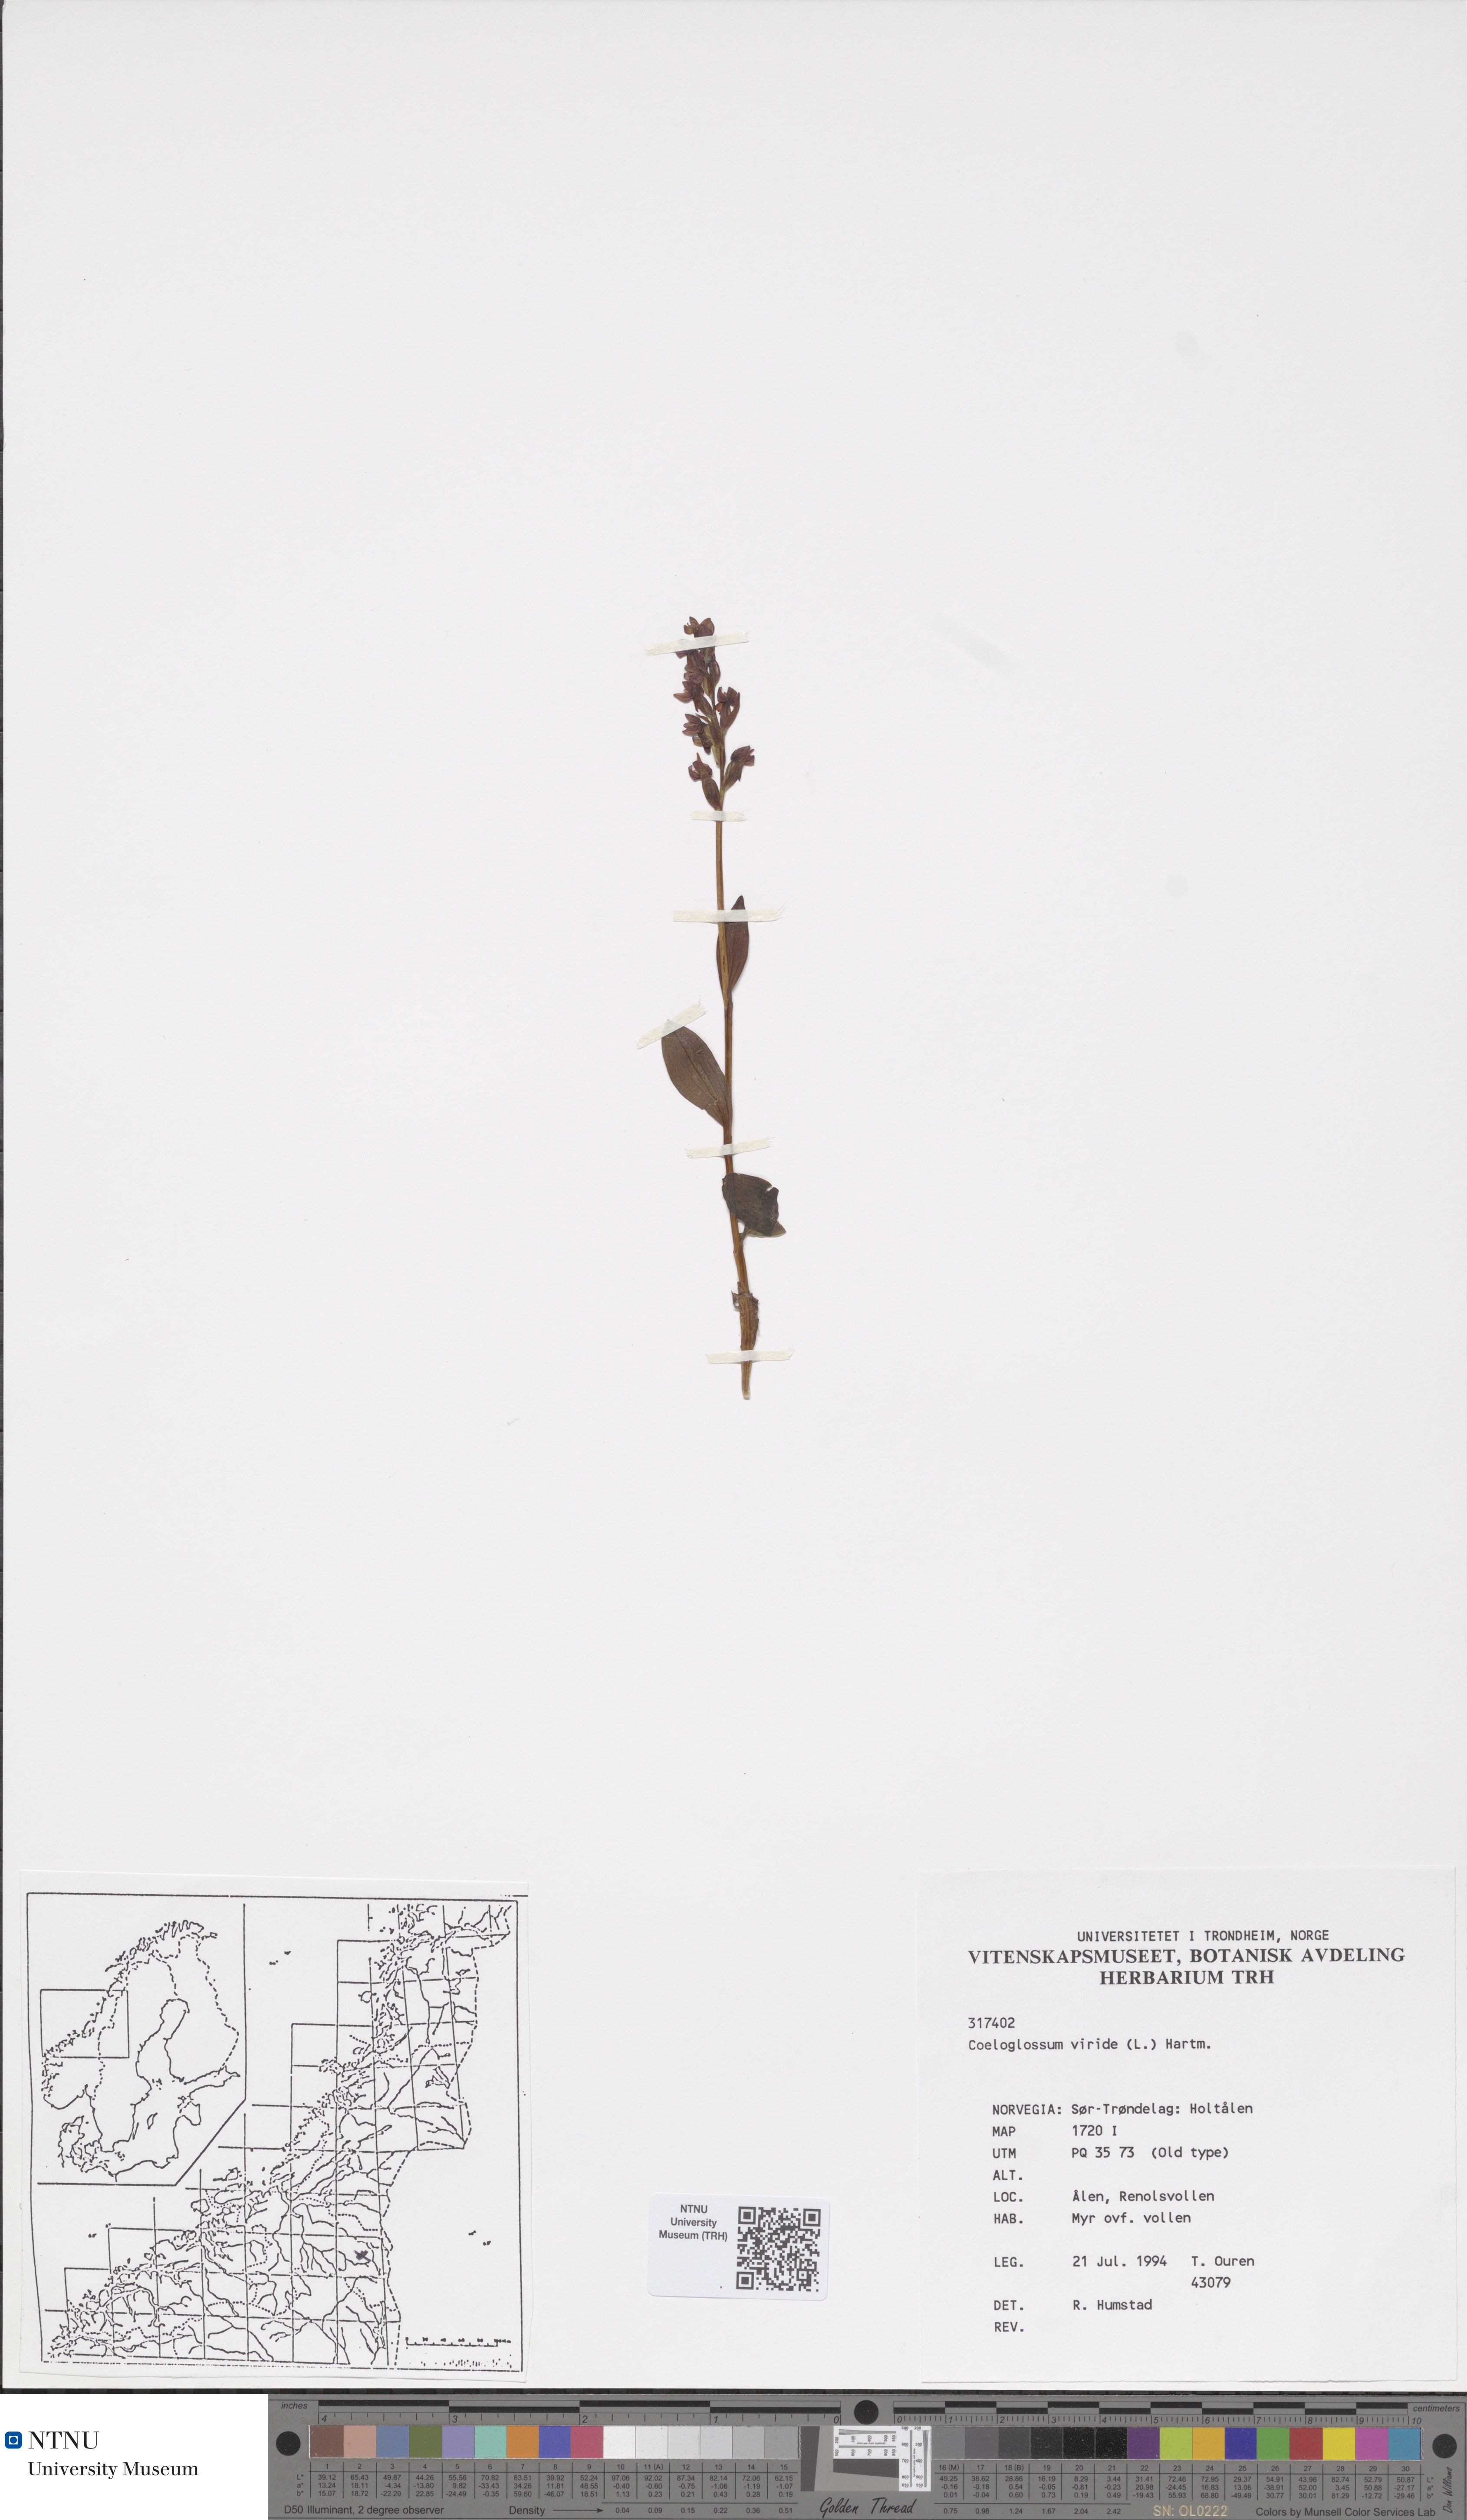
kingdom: Plantae
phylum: Tracheophyta
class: Liliopsida
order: Asparagales
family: Orchidaceae
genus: Dactylorhiza
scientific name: Dactylorhiza viridis
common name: Longbract frog orchid
